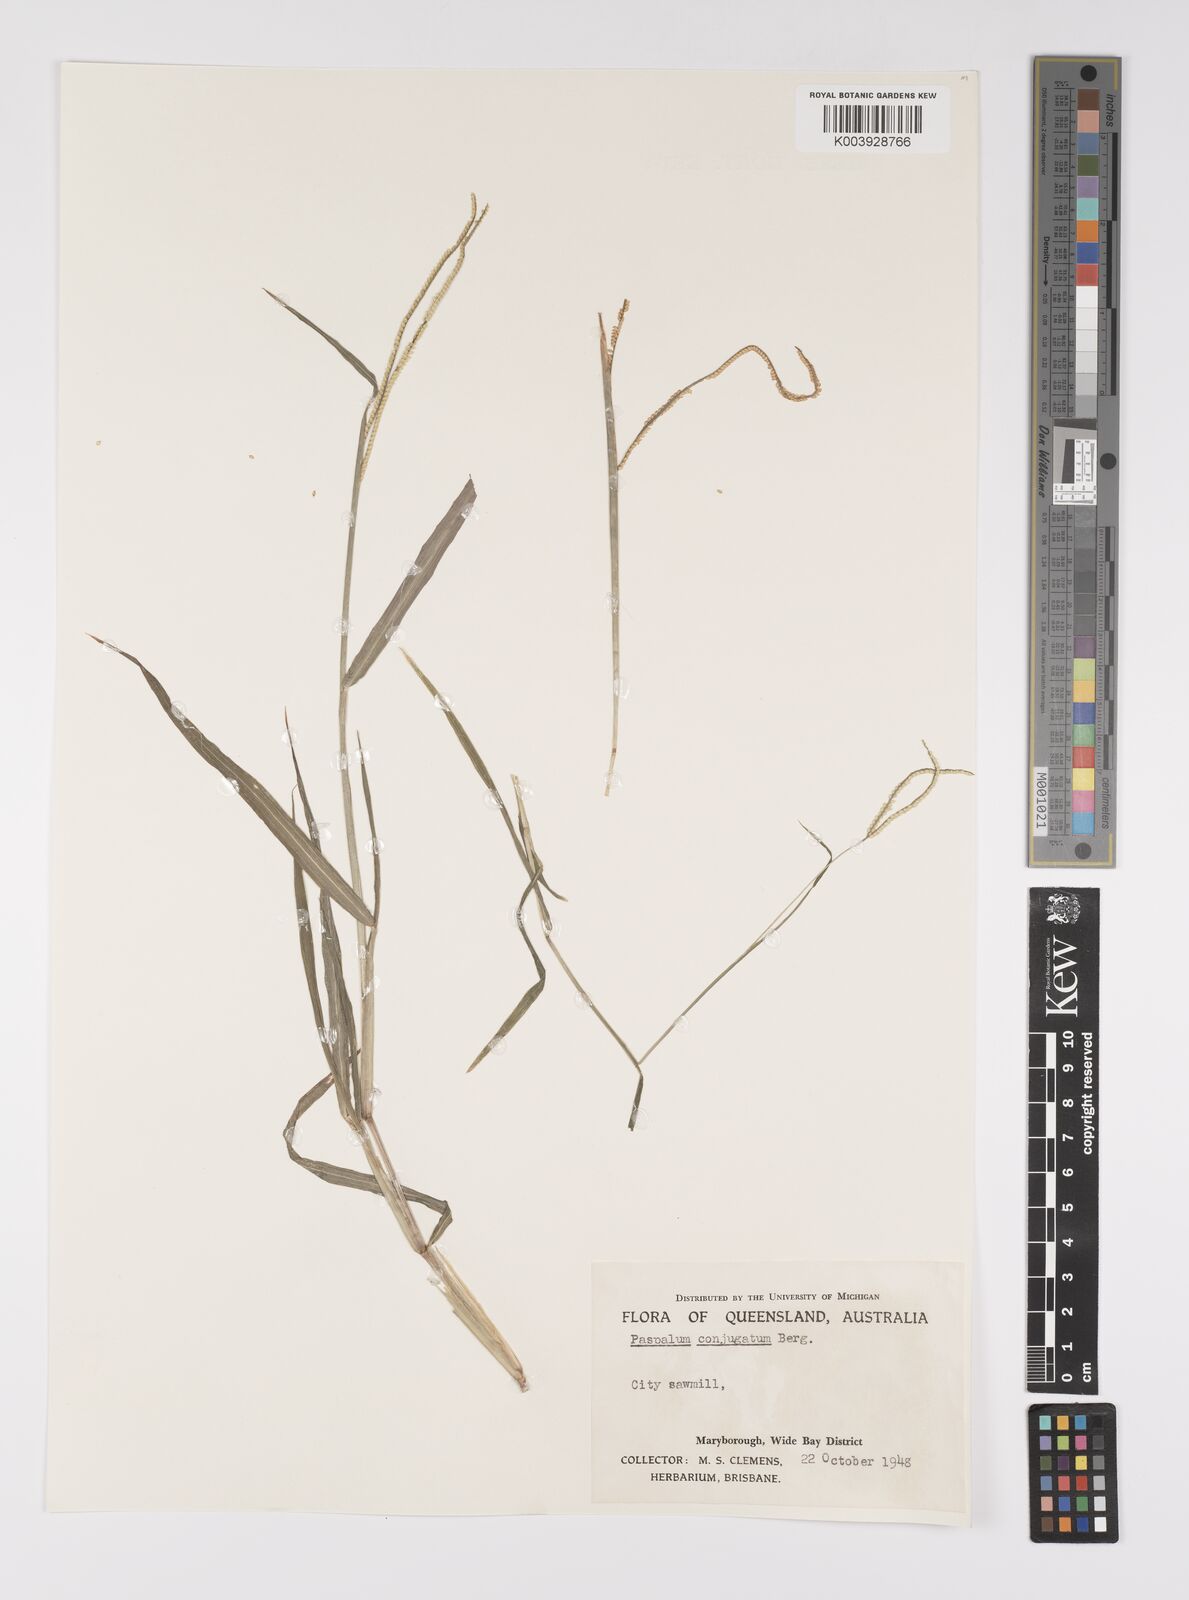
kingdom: Plantae
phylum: Tracheophyta
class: Liliopsida
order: Poales
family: Poaceae
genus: Paspalum
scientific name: Paspalum conjugatum
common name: Hilograss
